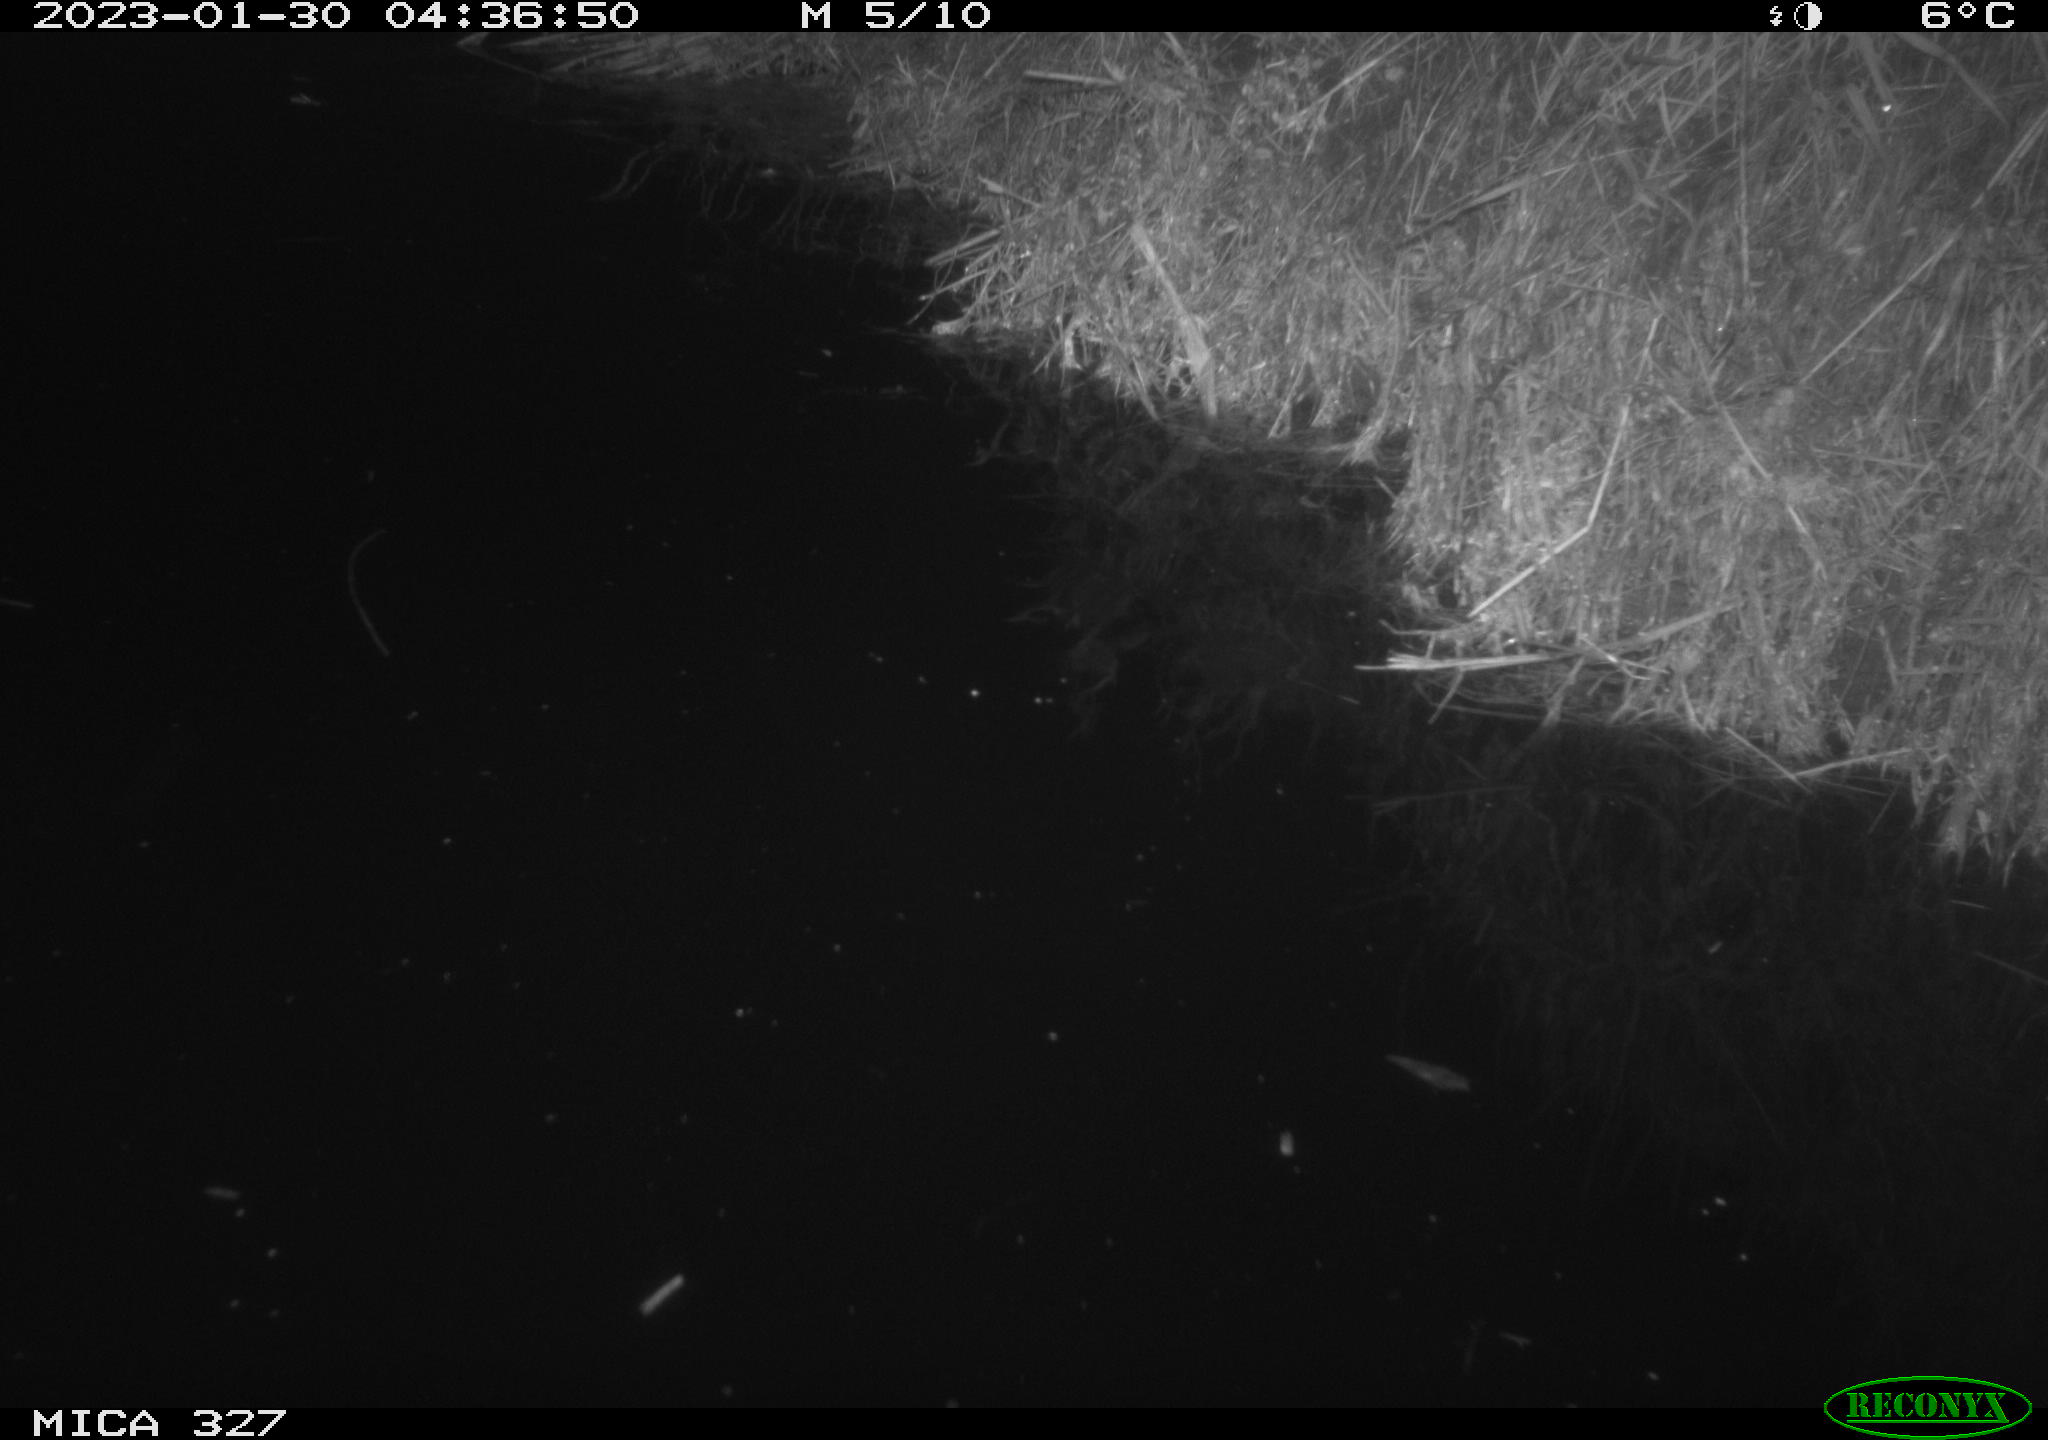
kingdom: Animalia
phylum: Chordata
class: Mammalia
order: Rodentia
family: Cricetidae
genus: Ondatra
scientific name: Ondatra zibethicus
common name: Muskrat
